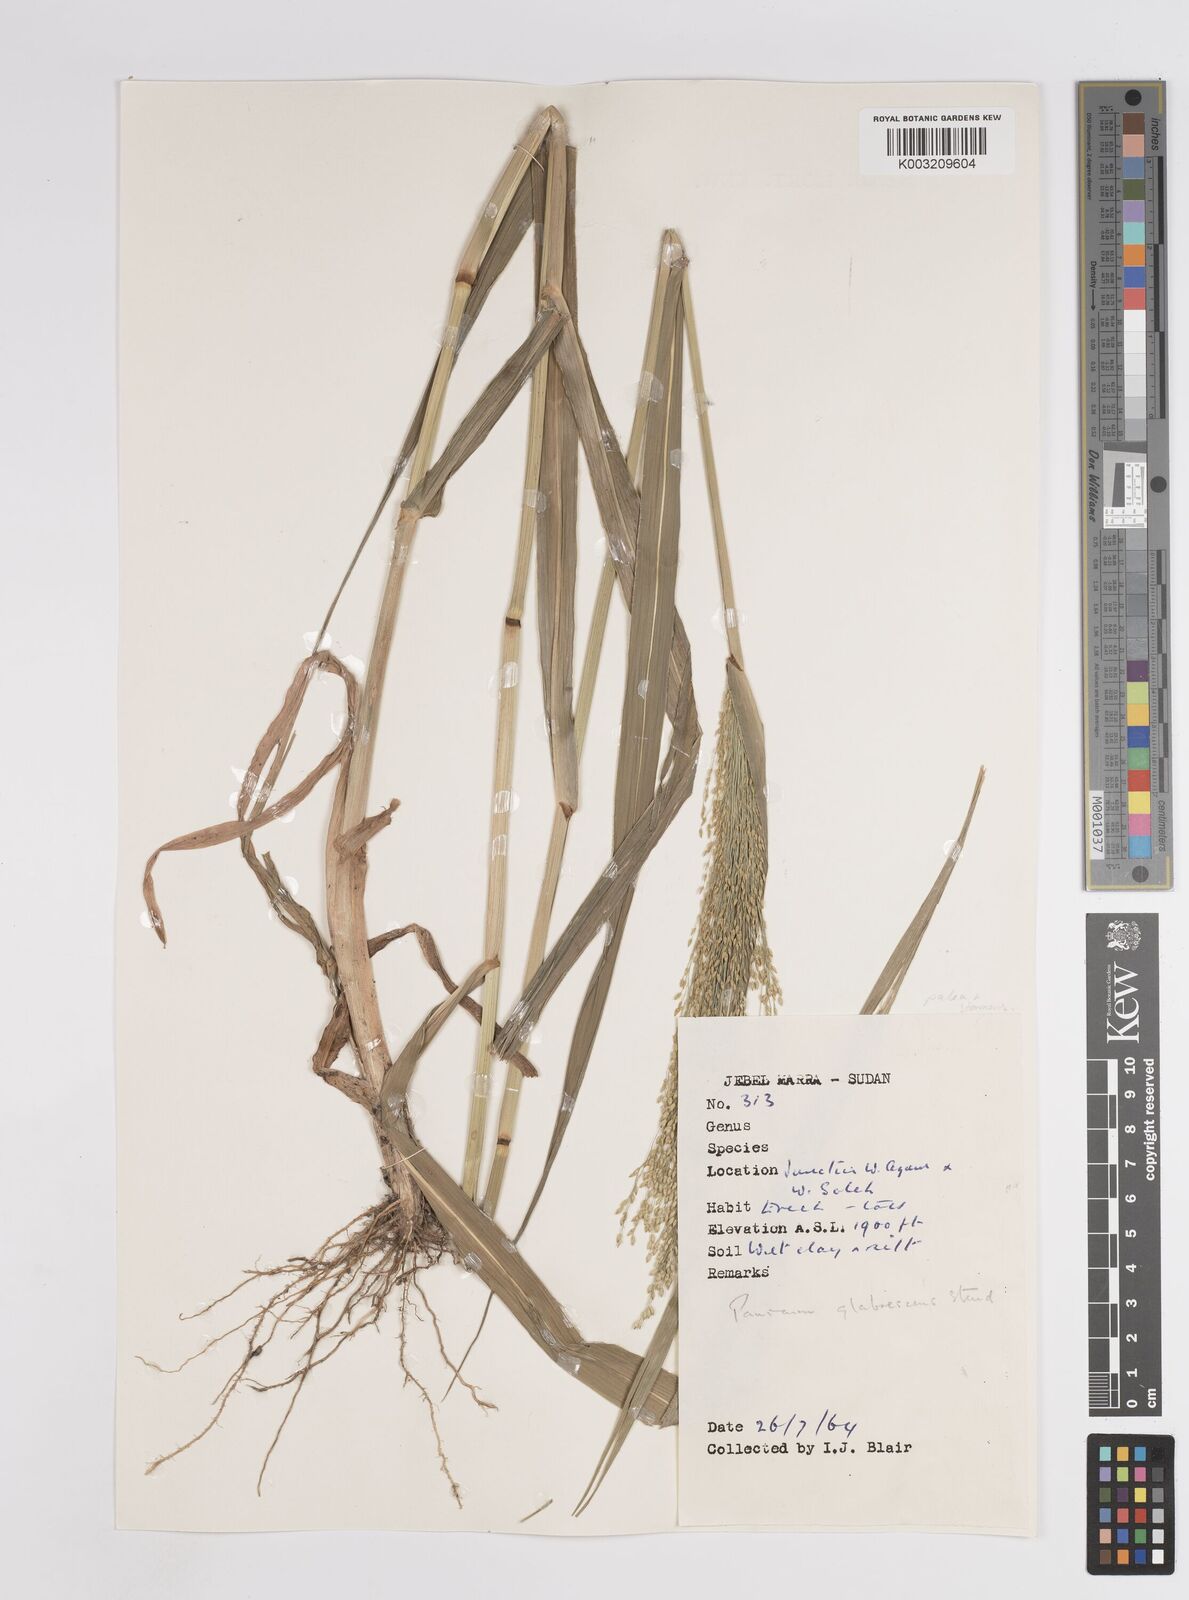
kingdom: Plantae
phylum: Tracheophyta
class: Liliopsida
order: Poales
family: Poaceae
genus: Panicum
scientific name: Panicum subalbidum
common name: Elbow buffalo grass
